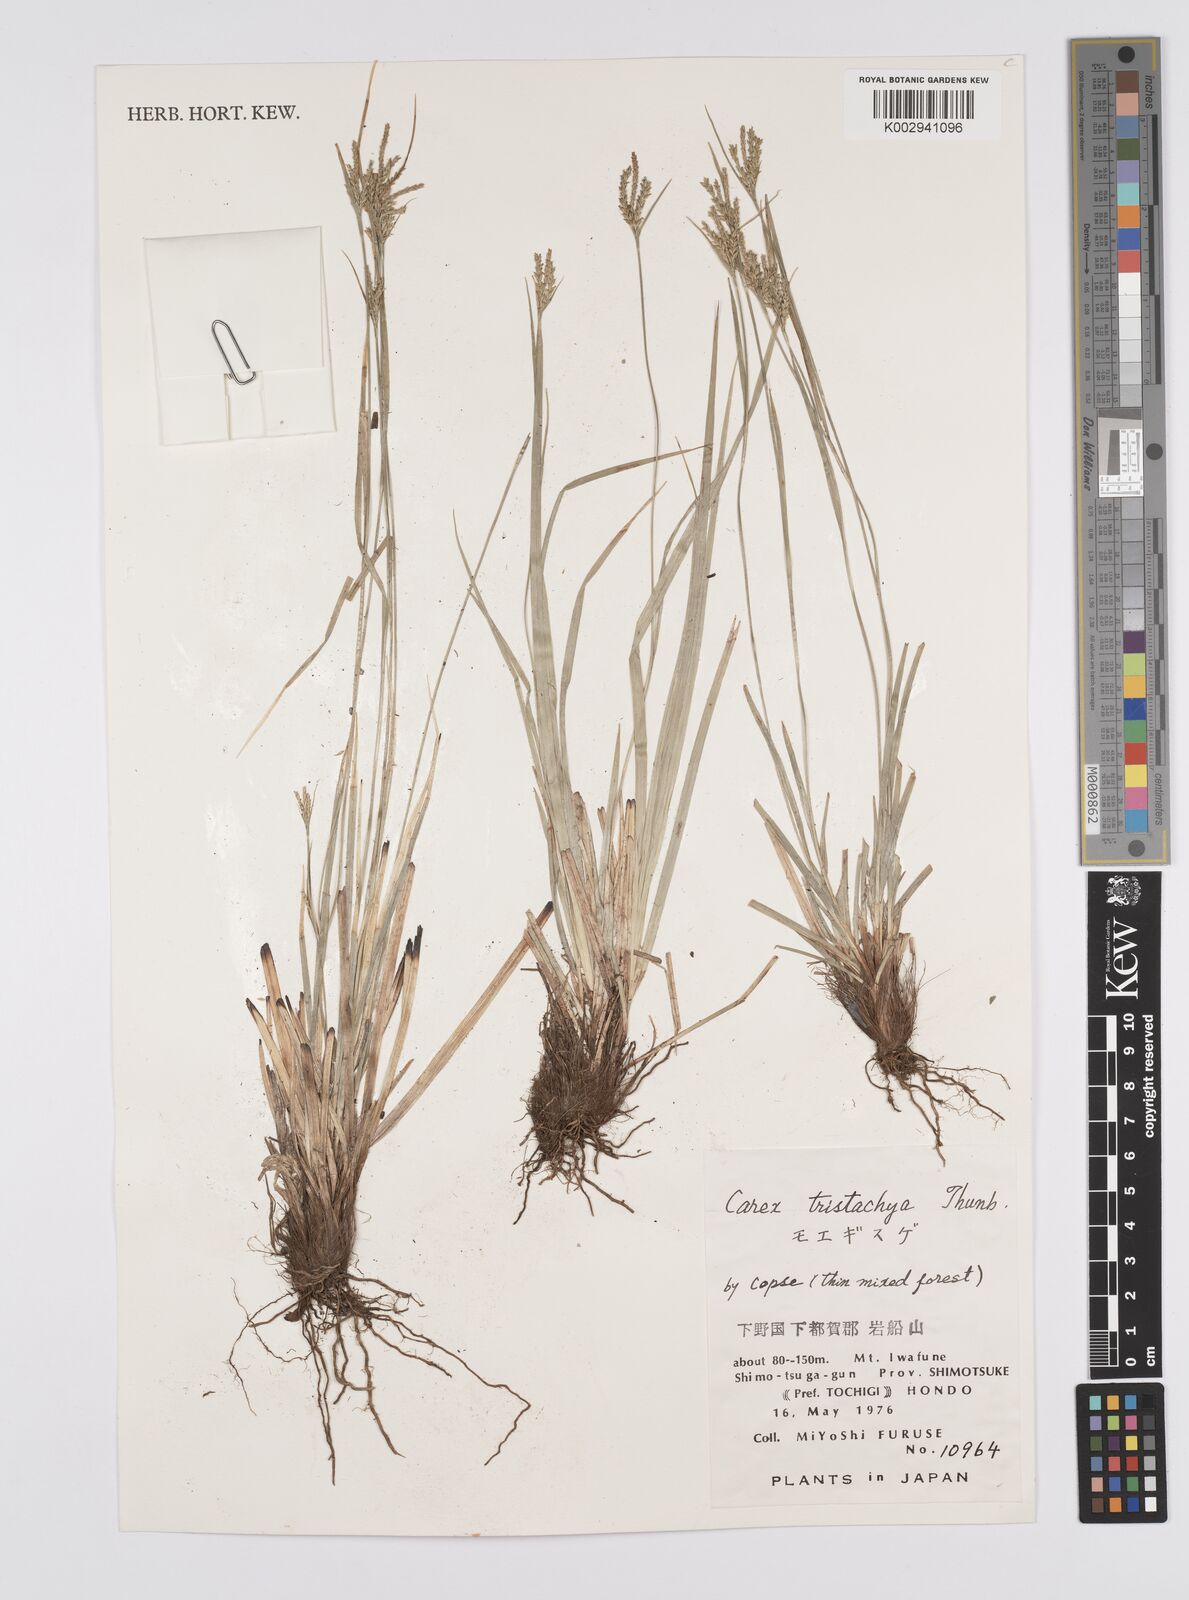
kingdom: Plantae
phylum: Tracheophyta
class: Liliopsida
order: Poales
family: Cyperaceae
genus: Carex
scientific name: Carex tristachya
